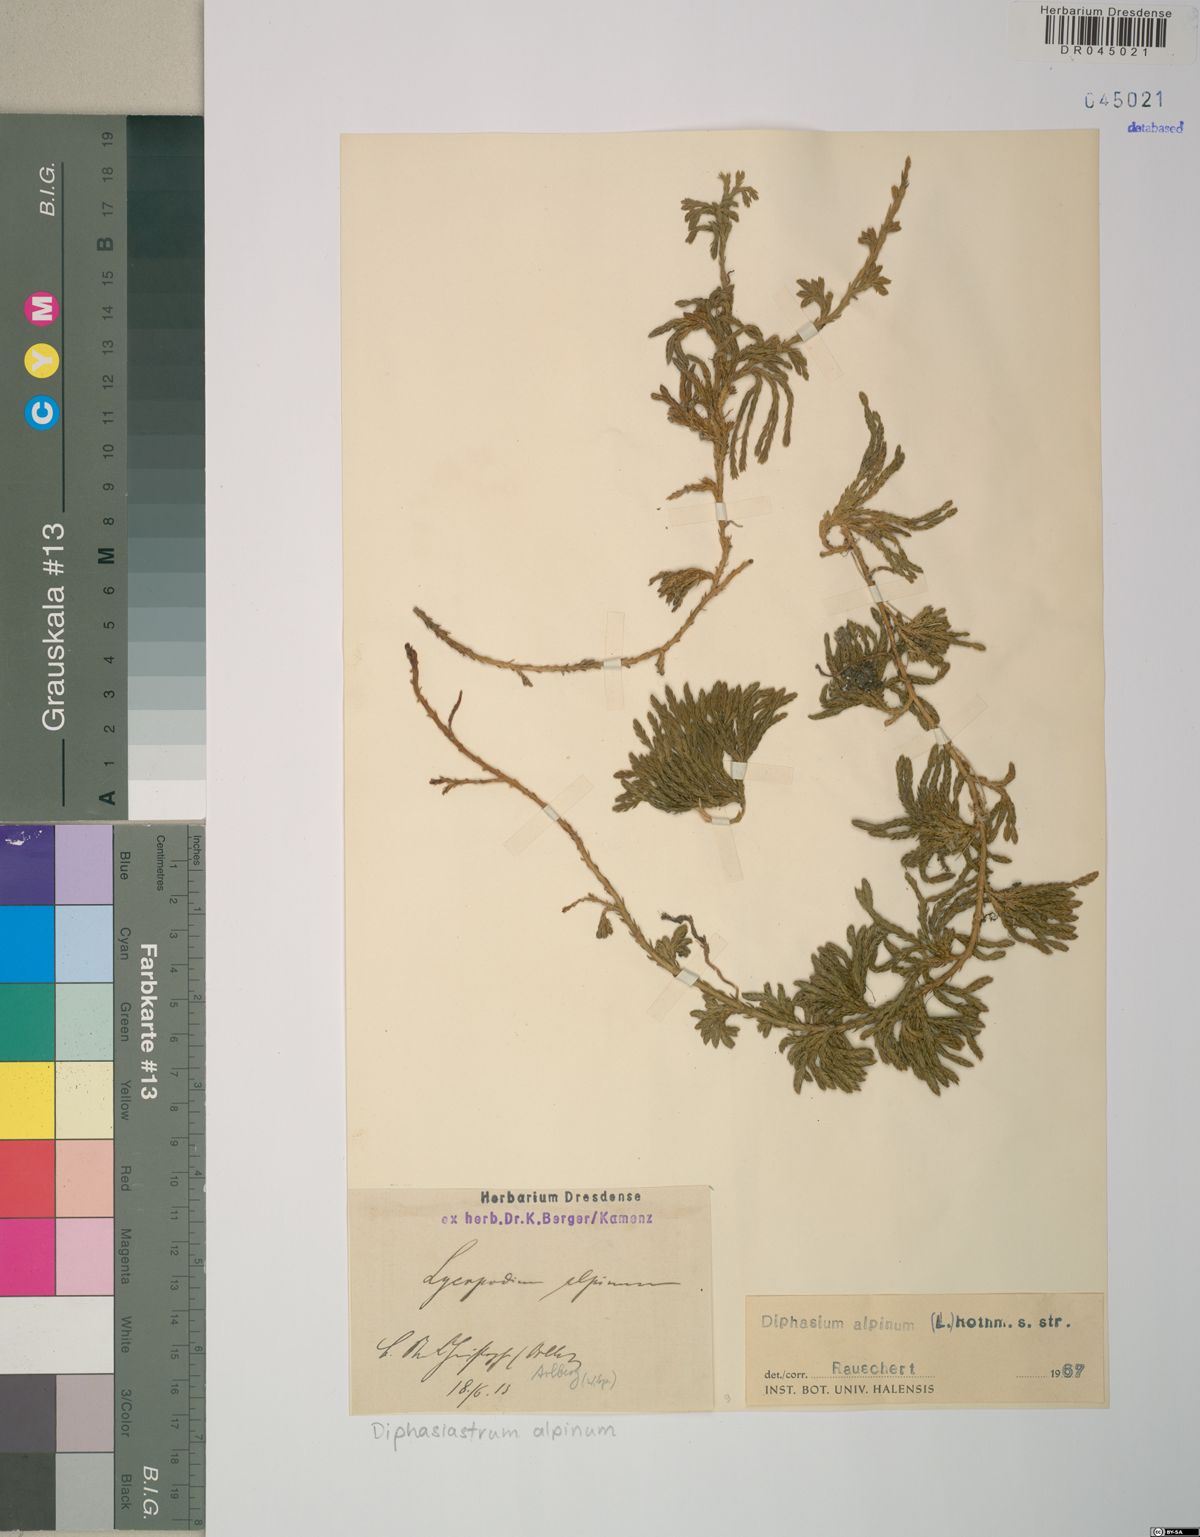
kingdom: Plantae
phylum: Tracheophyta
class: Lycopodiopsida
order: Lycopodiales
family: Lycopodiaceae
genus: Diphasiastrum
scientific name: Diphasiastrum alpinum
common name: Alpine clubmoss
